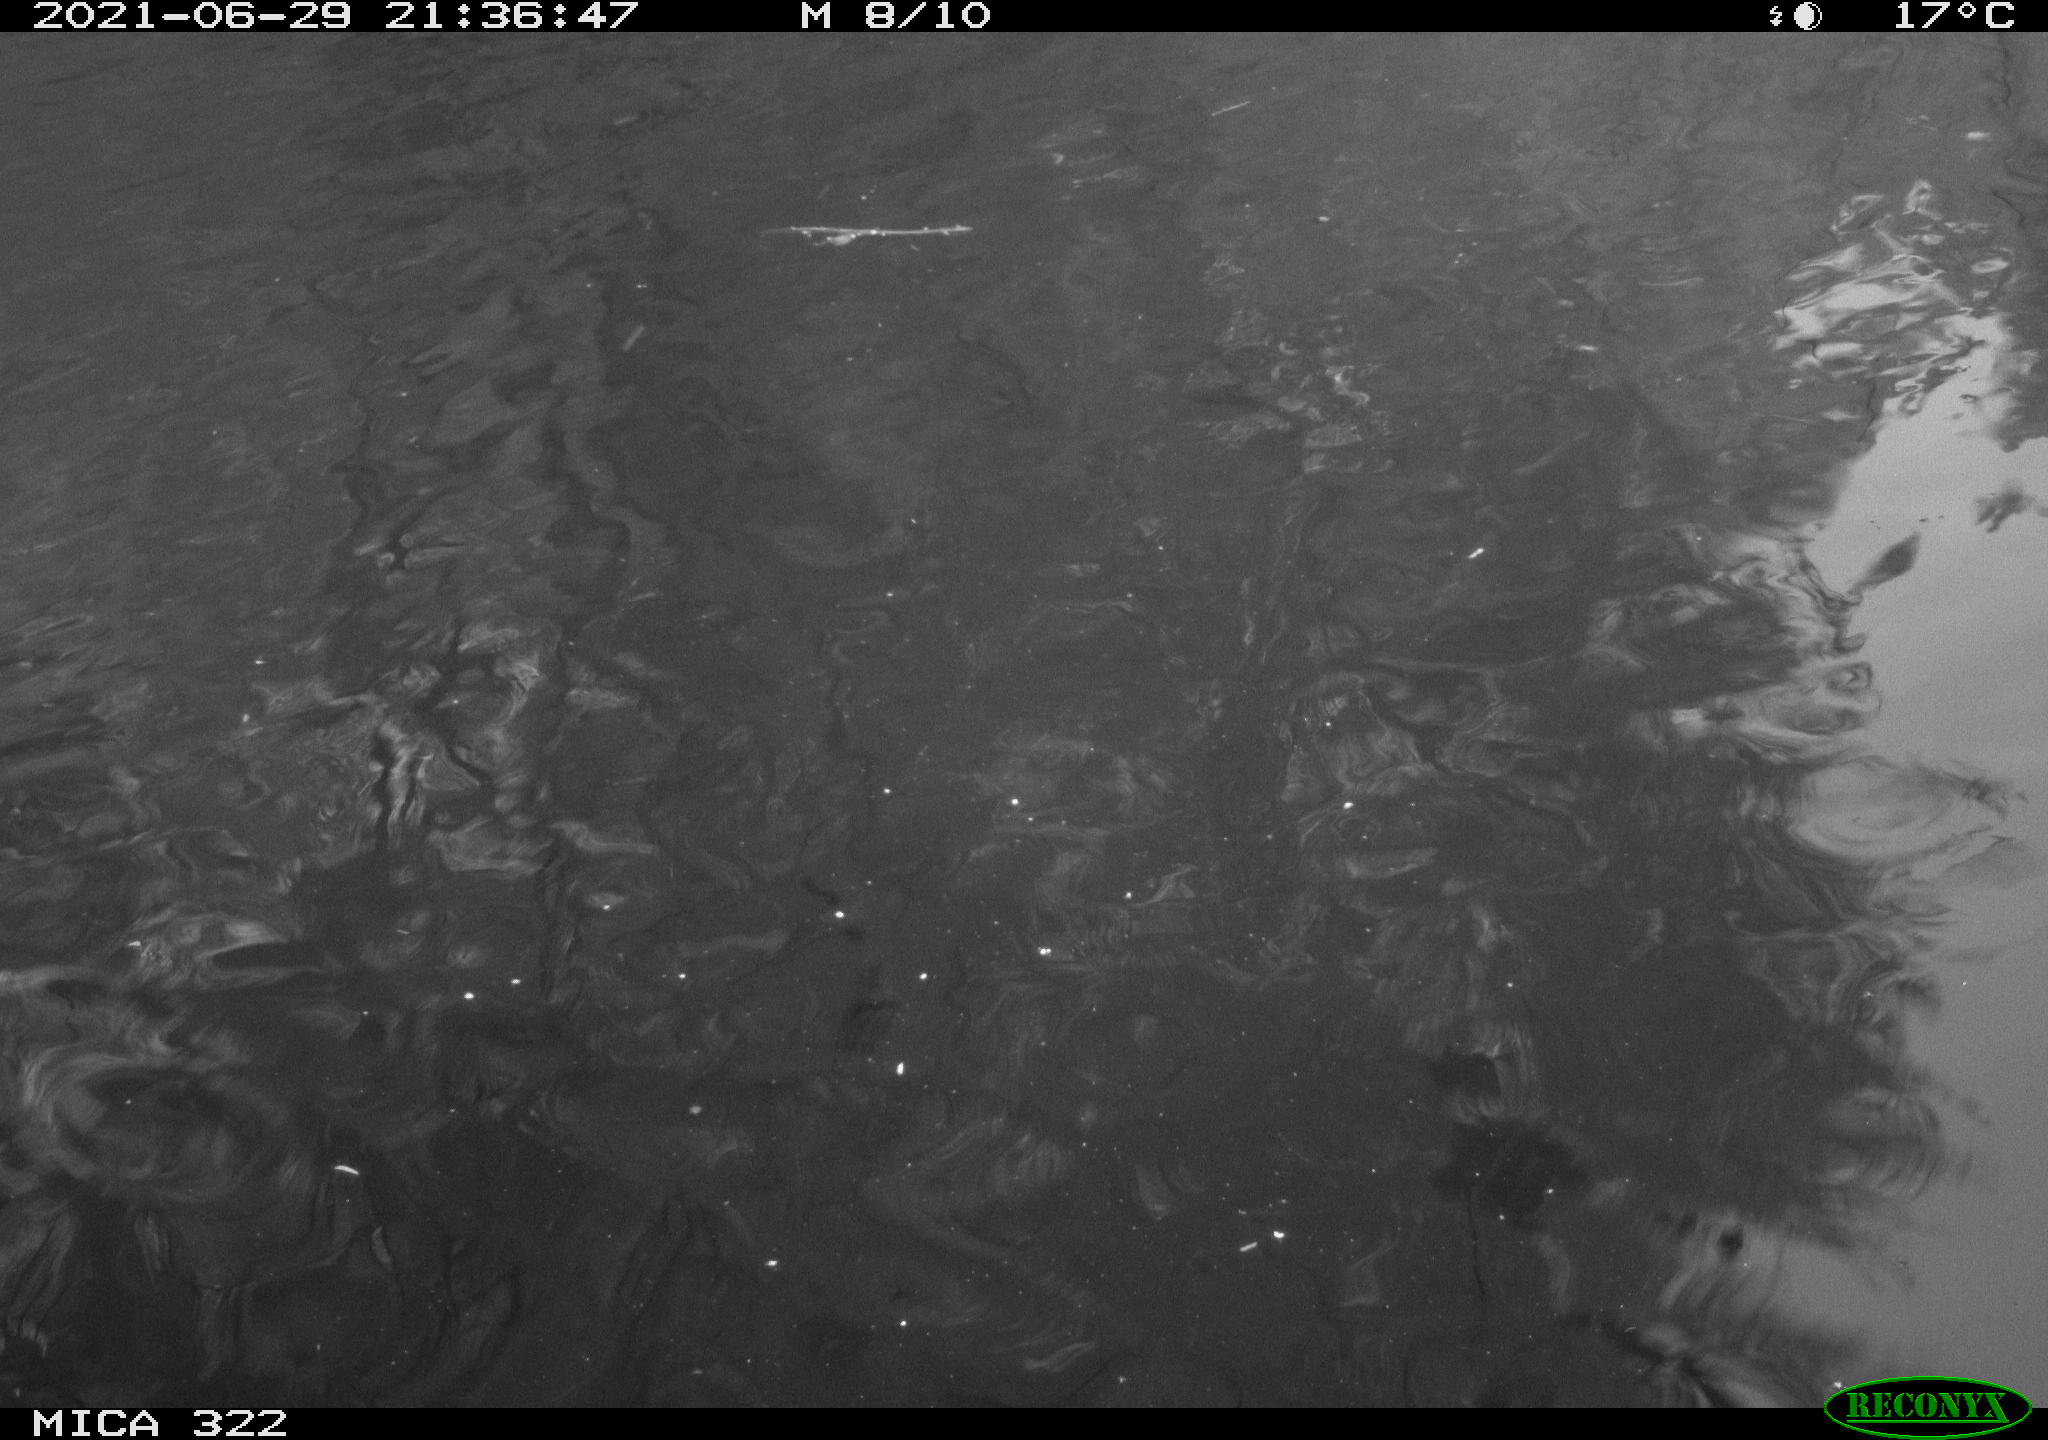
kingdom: Animalia
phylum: Chordata
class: Aves
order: Anseriformes
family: Anatidae
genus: Mareca
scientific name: Mareca strepera
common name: Gadwall
